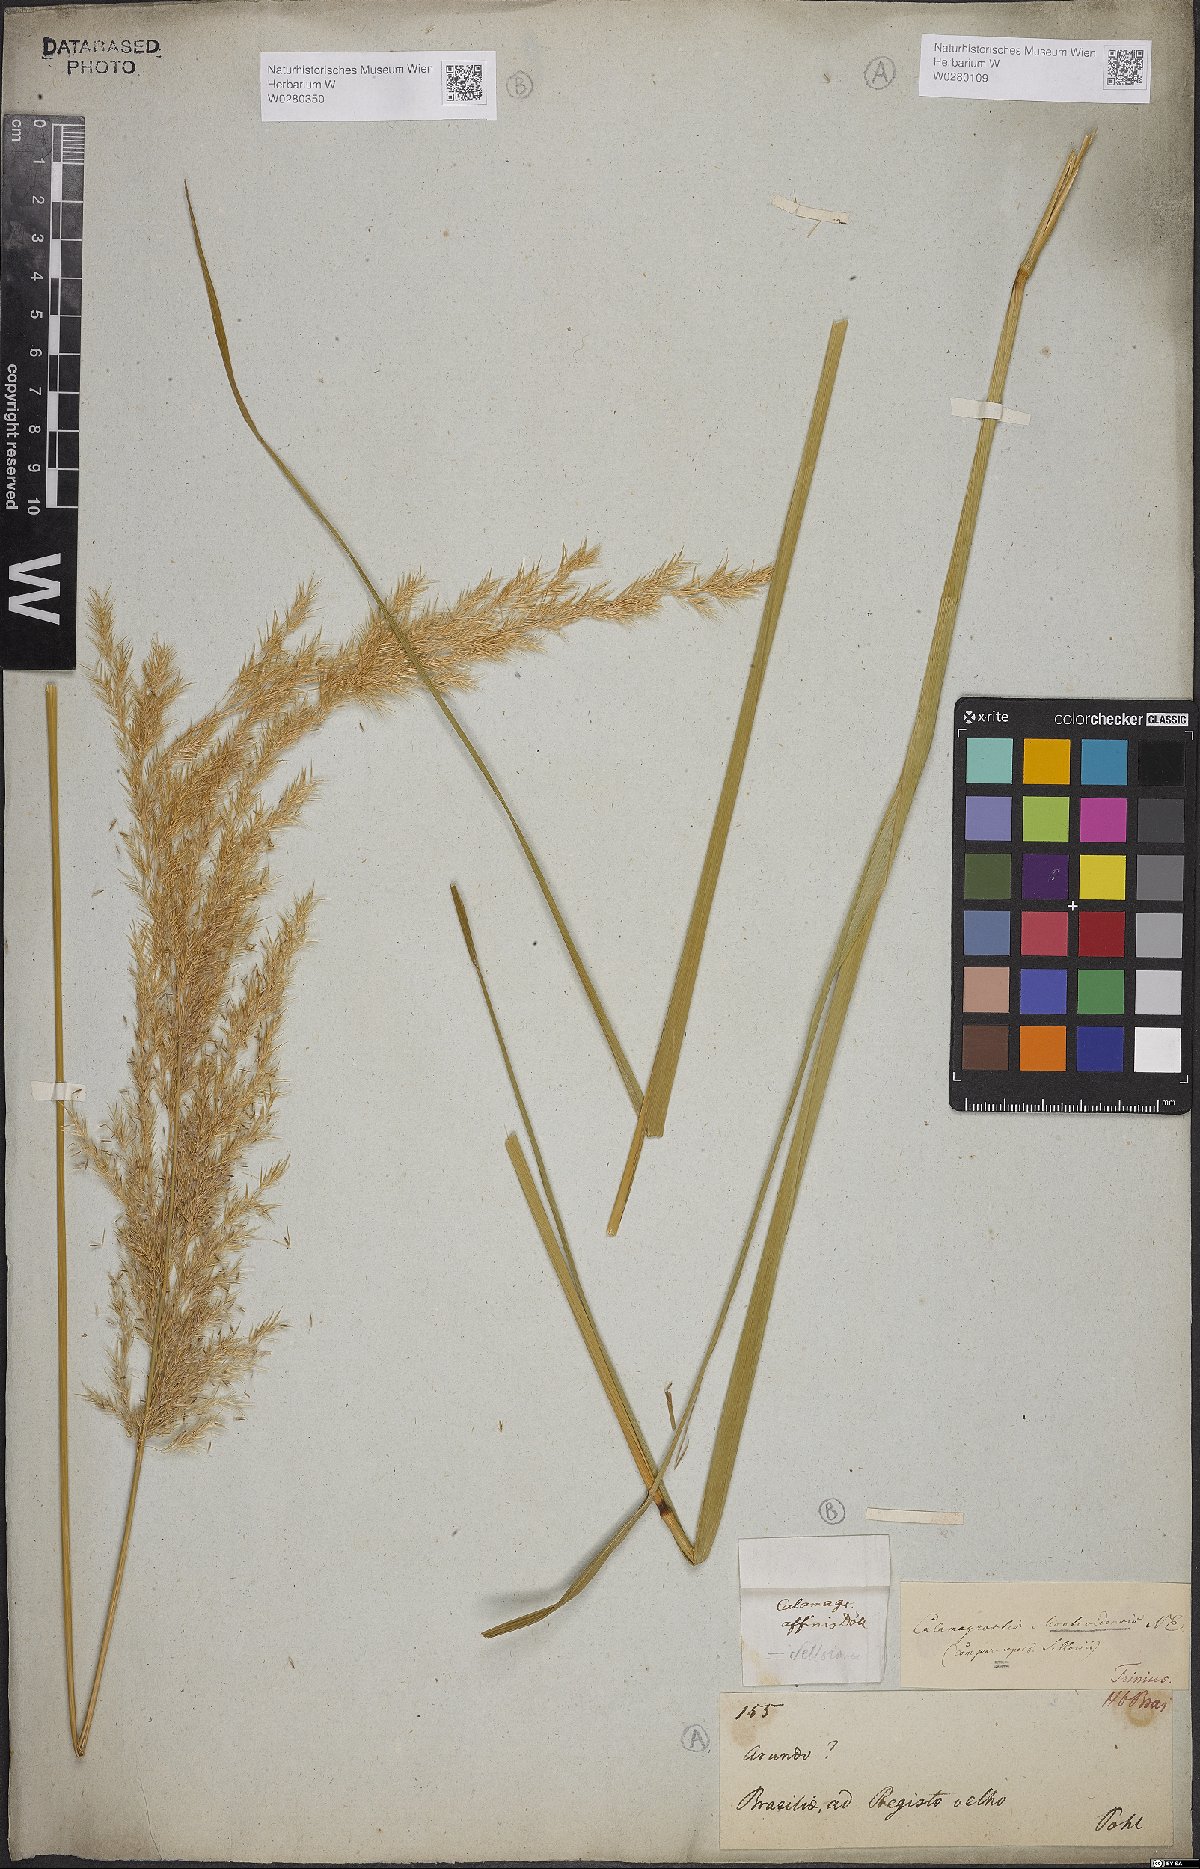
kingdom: Plantae
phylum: Tracheophyta
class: Liliopsida
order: Poales
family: Poaceae
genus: Cinnagrostis
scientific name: Cinnagrostis viridiflavescens
